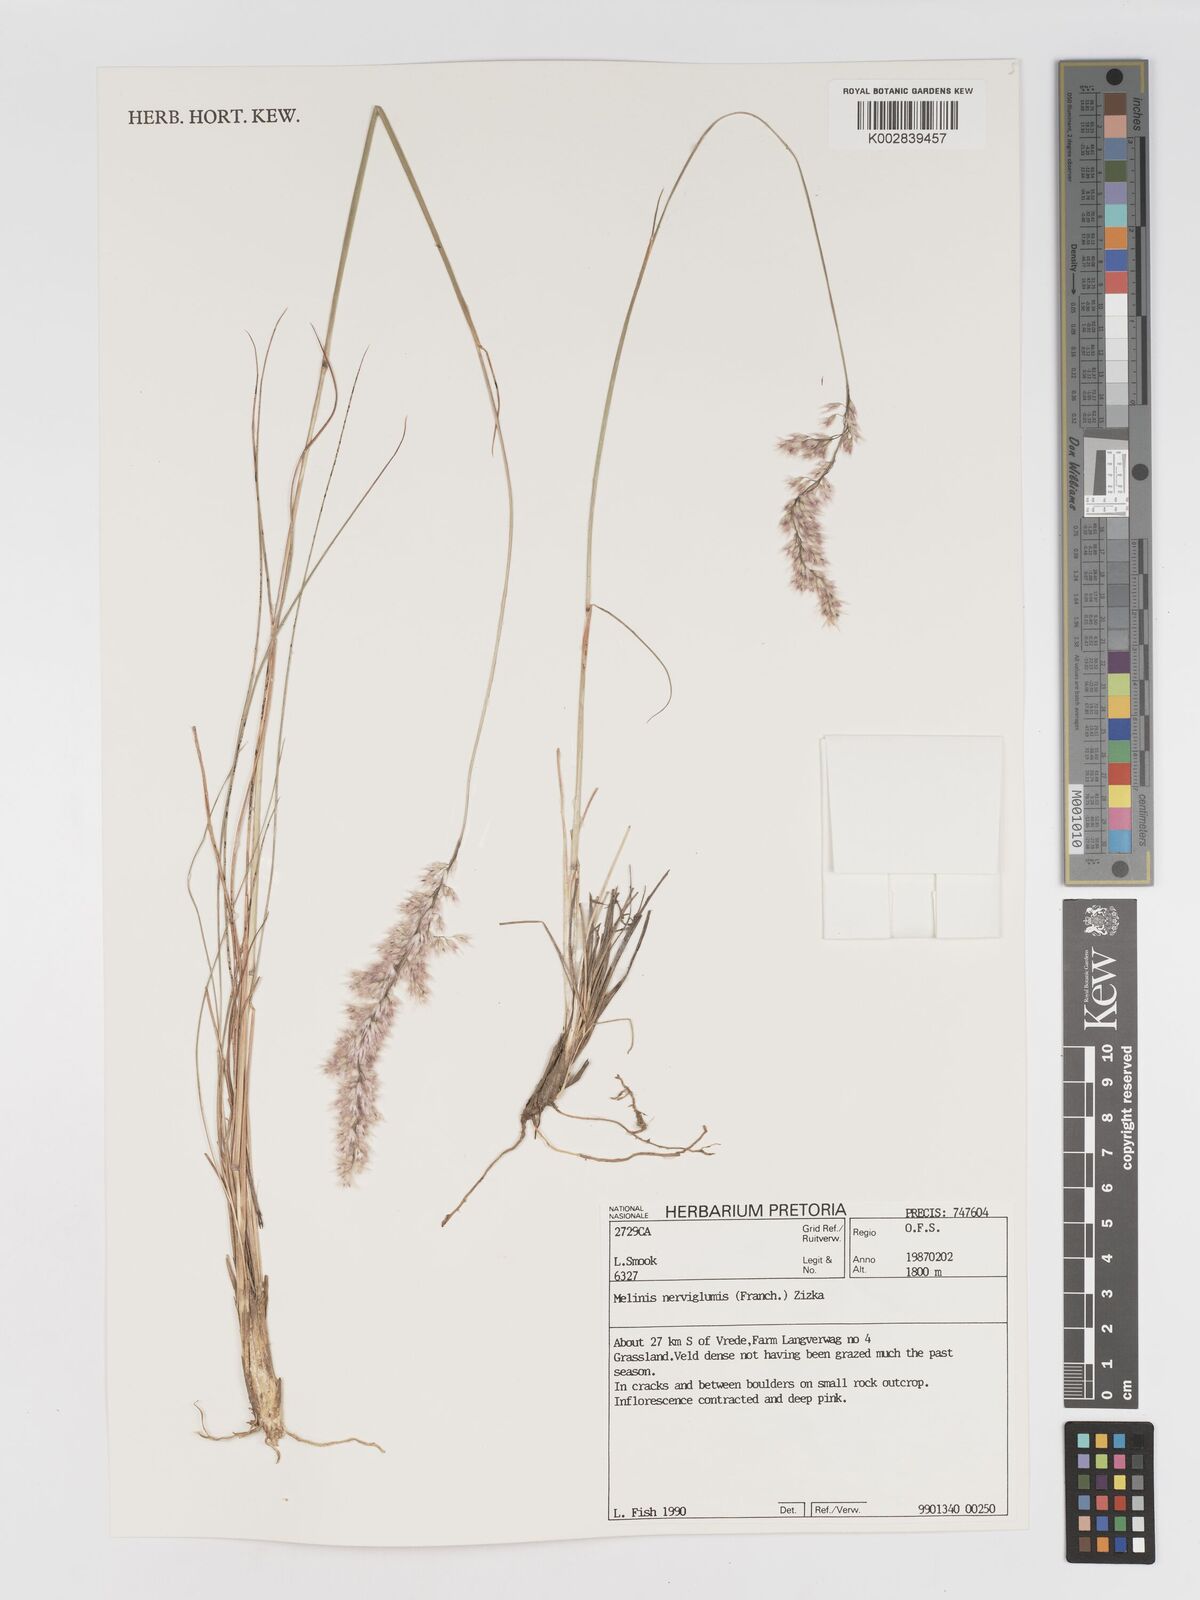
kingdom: Plantae
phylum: Tracheophyta
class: Liliopsida
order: Poales
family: Poaceae
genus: Melinis
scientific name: Melinis nerviglumis
